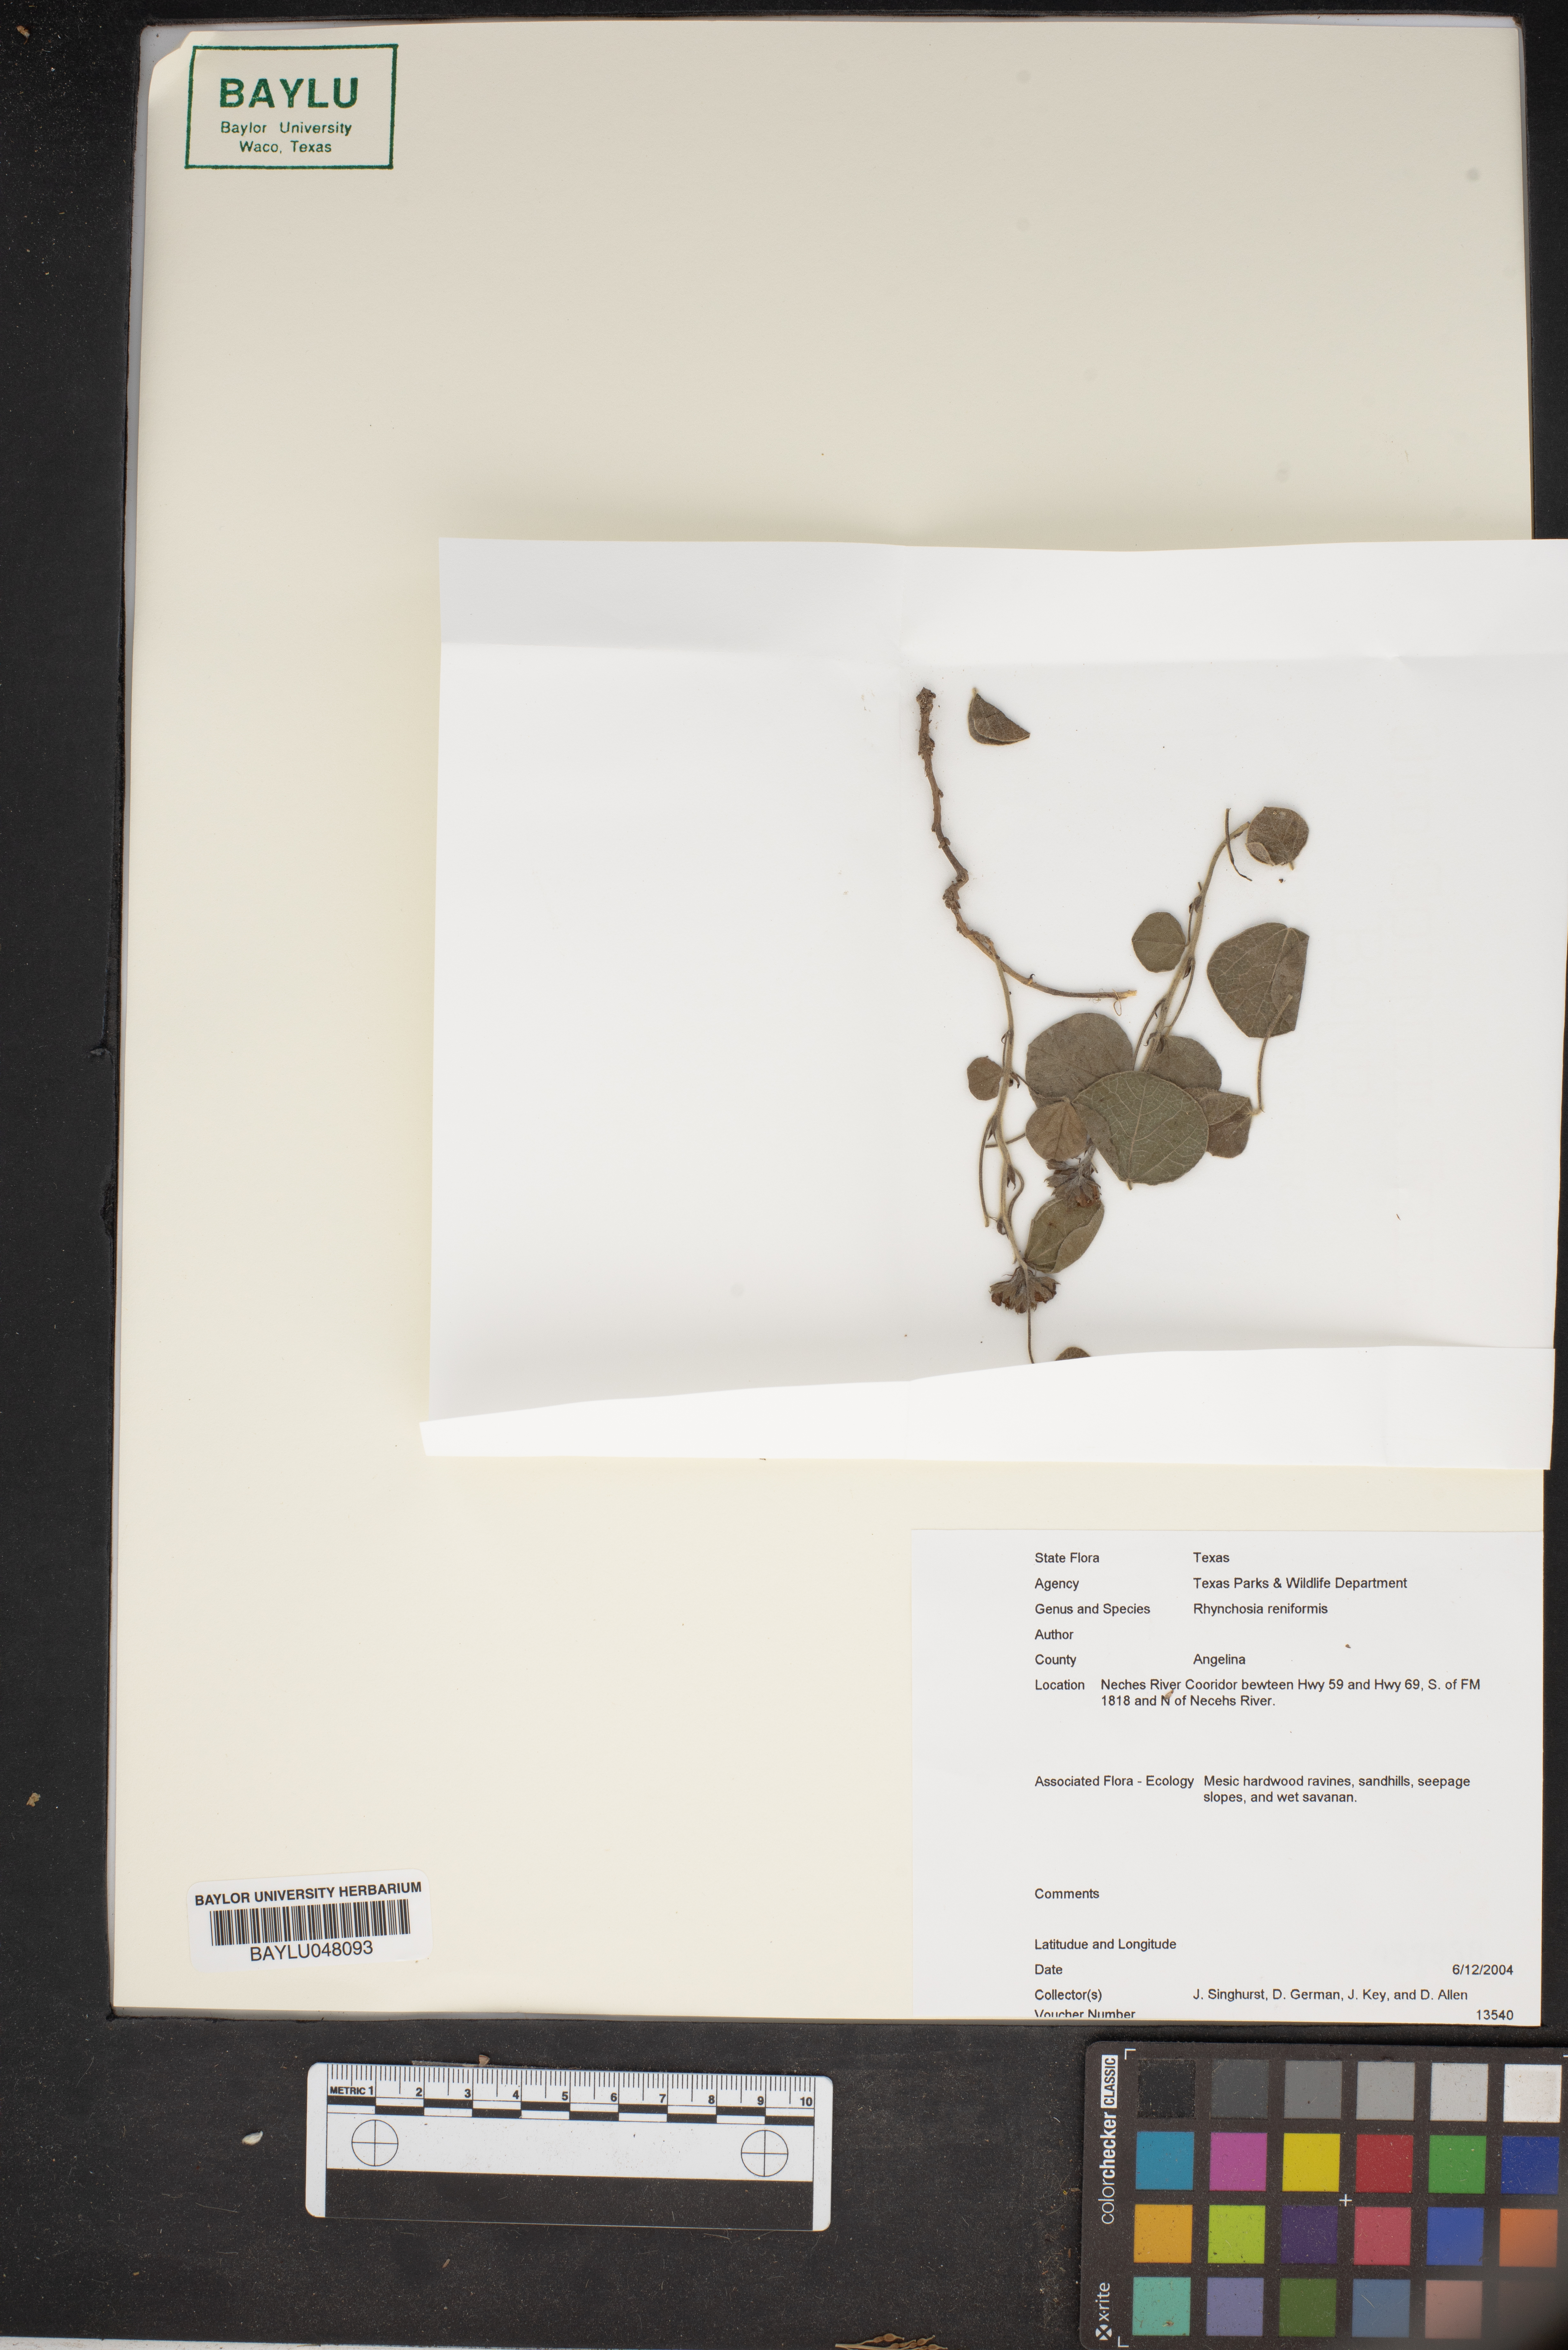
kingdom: Plantae
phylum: Tracheophyta
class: Magnoliopsida
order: Fabales
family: Fabaceae
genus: Rhynchosia
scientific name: Rhynchosia reniformis
